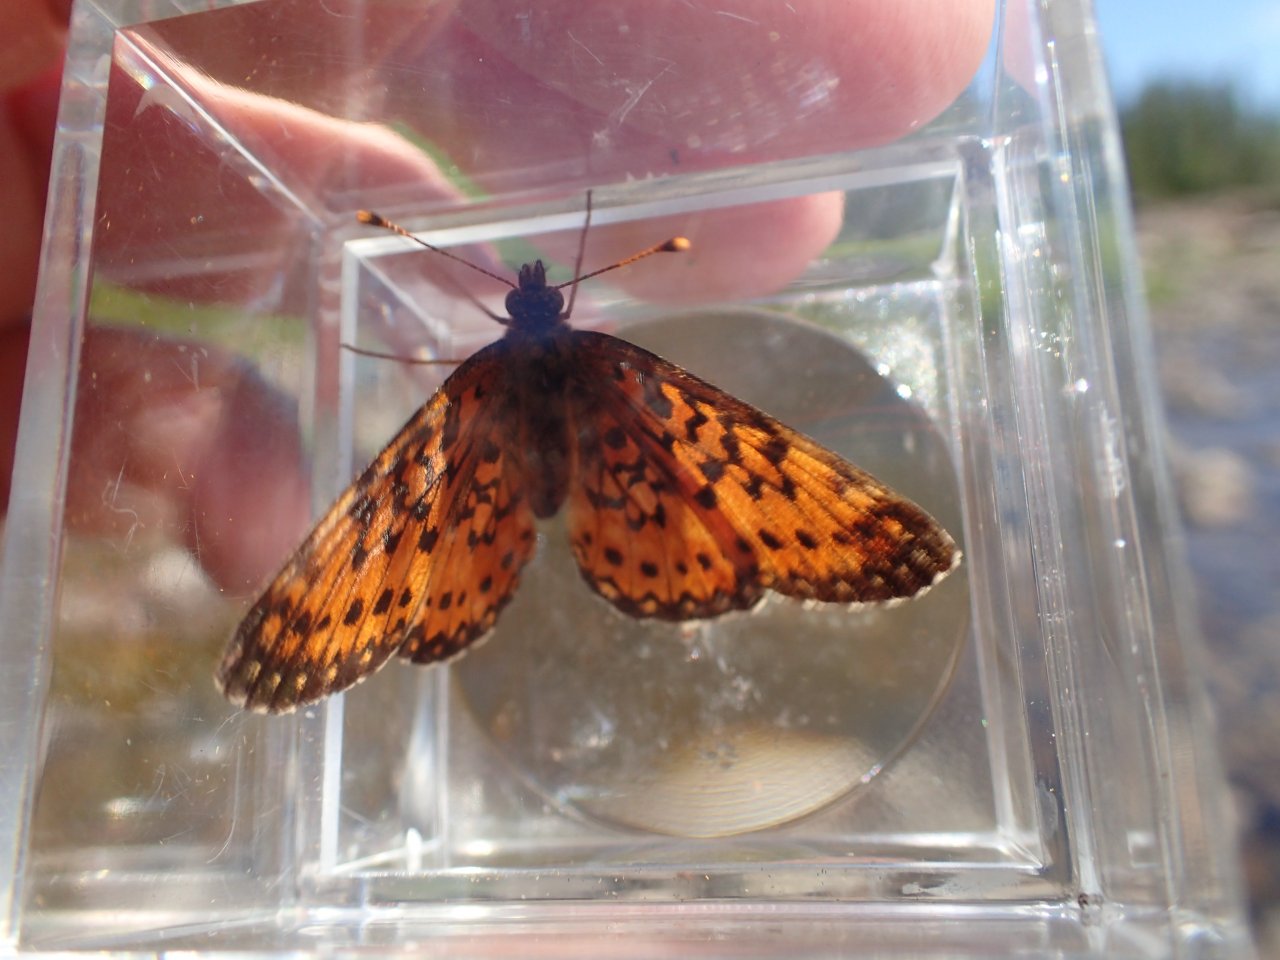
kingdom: Animalia
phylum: Arthropoda
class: Insecta
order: Lepidoptera
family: Nymphalidae
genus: Boloria
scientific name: Boloria selene
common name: Silver-bordered Fritillary
